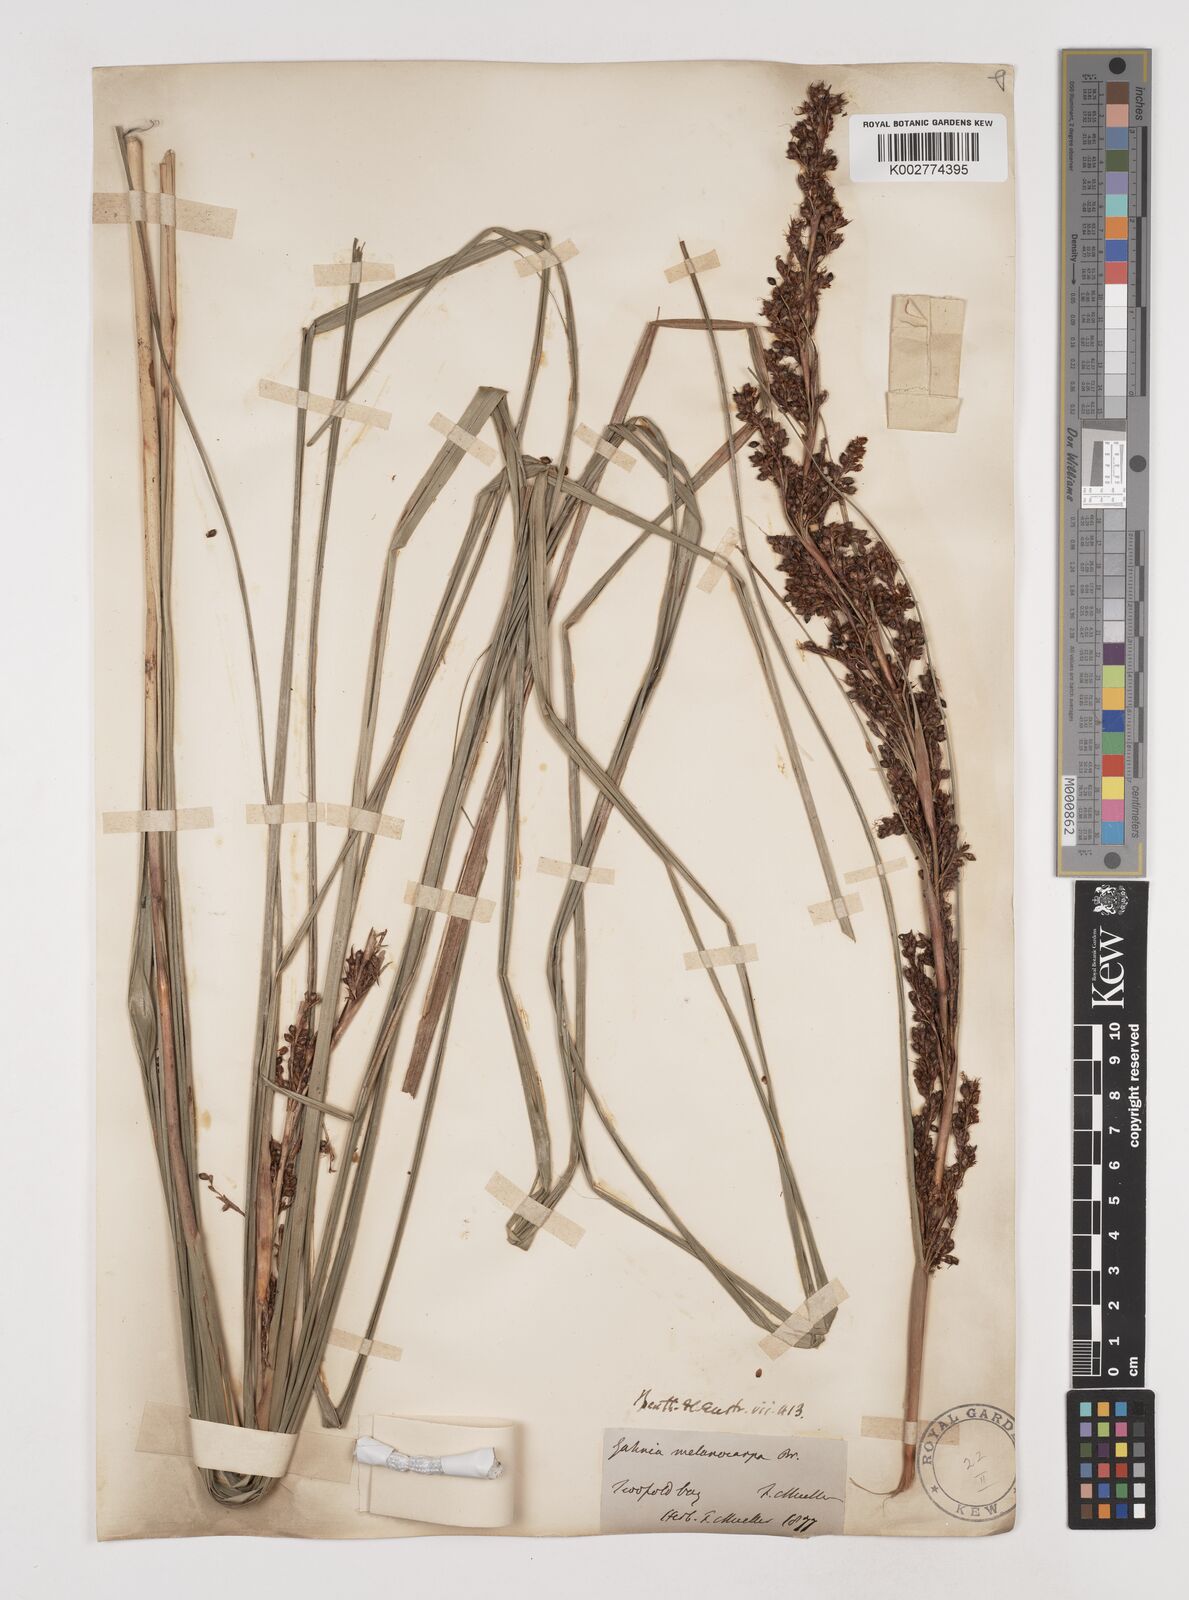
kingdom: Plantae
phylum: Tracheophyta
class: Liliopsida
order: Poales
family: Cyperaceae
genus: Gahnia
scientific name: Gahnia melanocarpa
